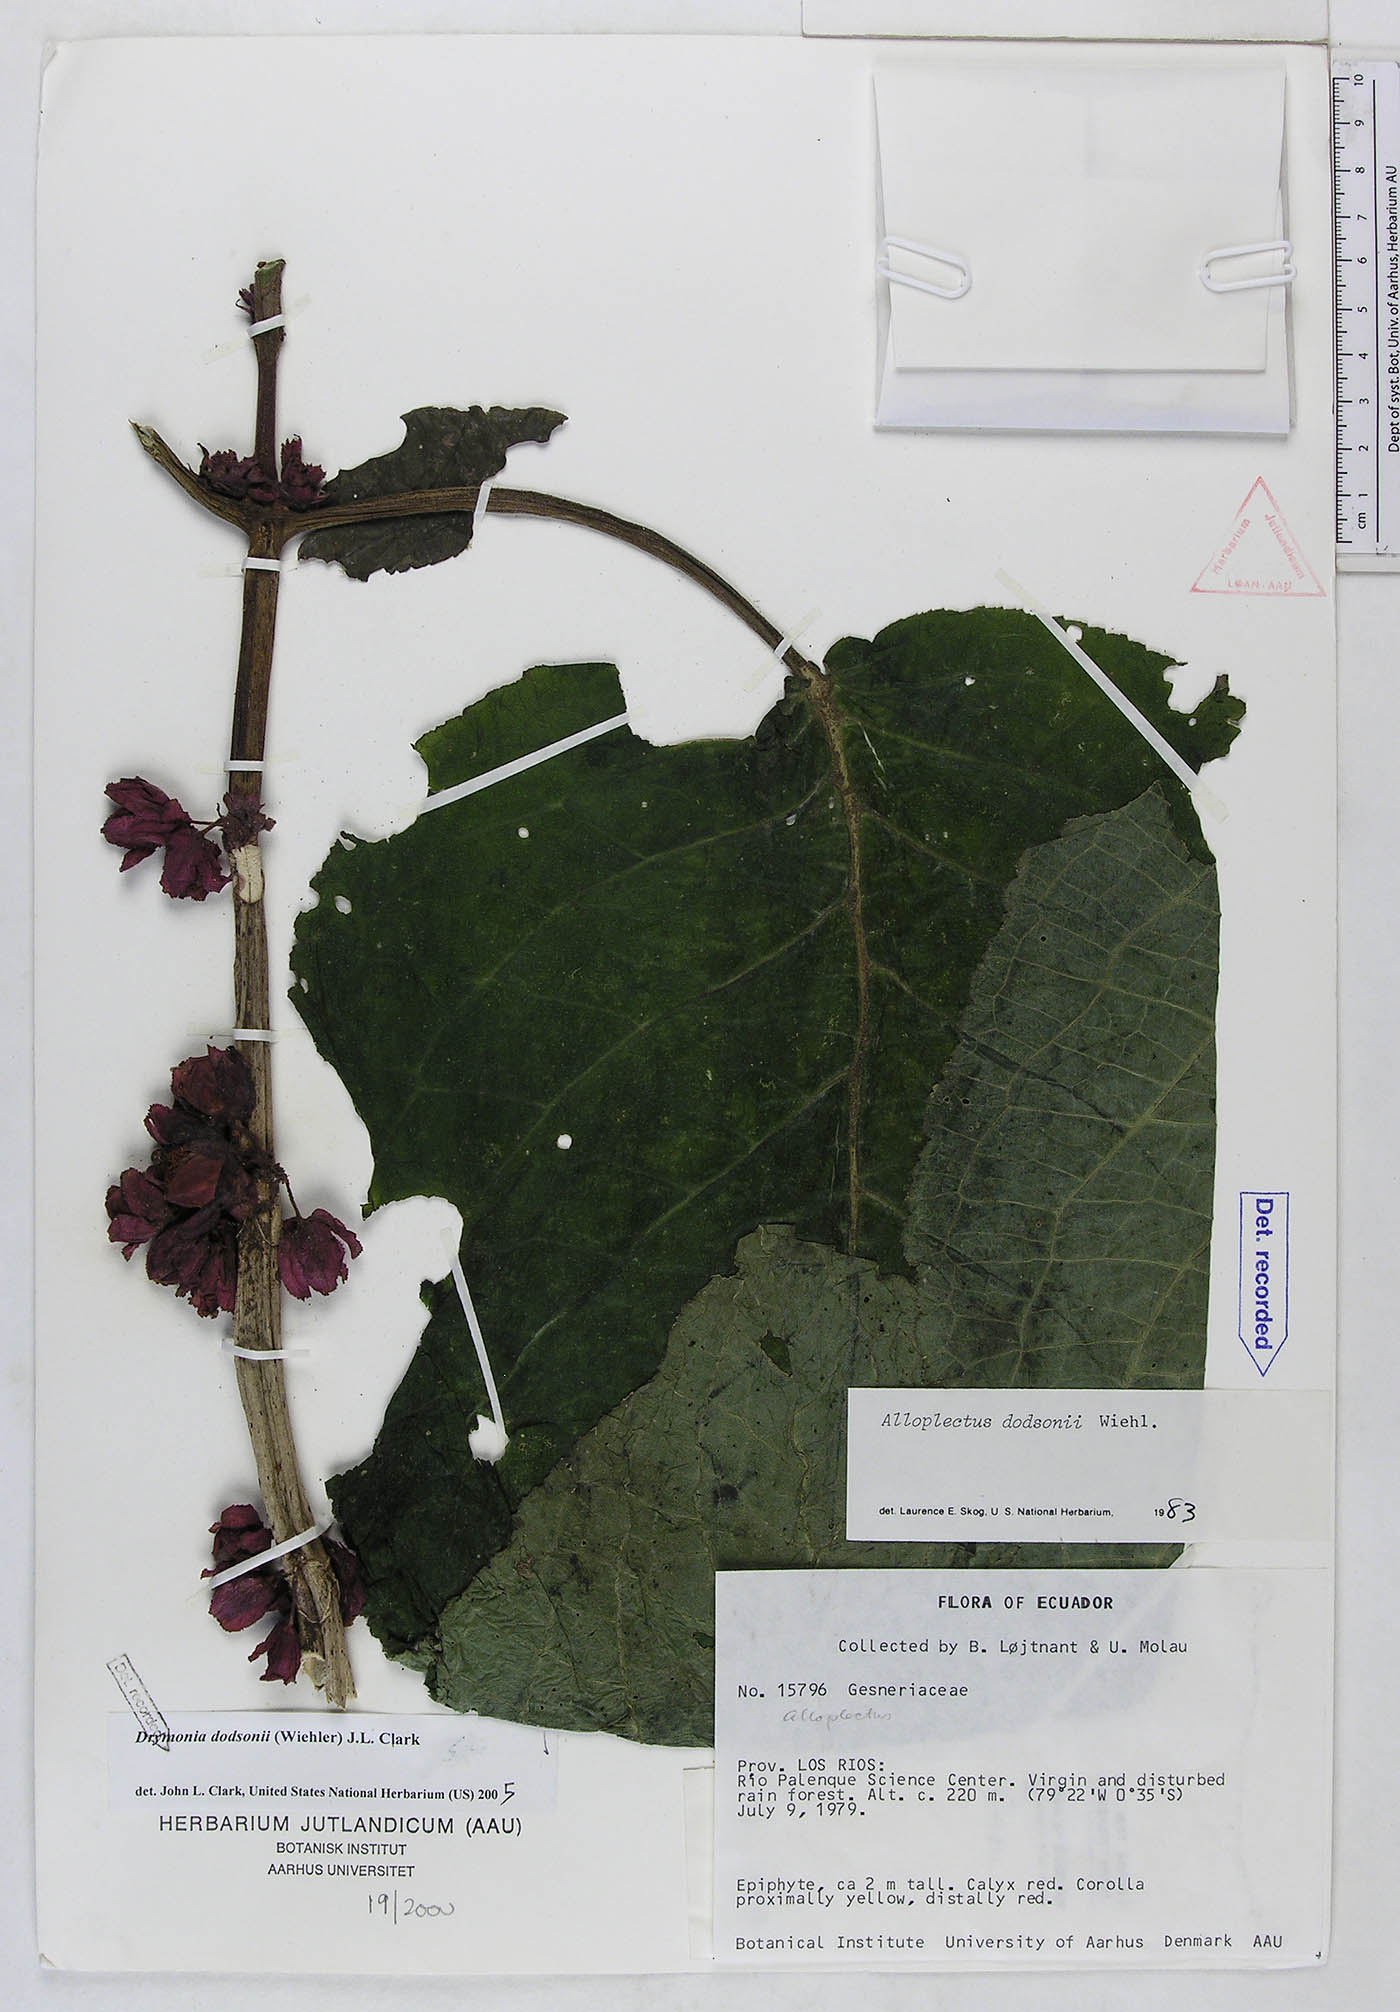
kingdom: Plantae
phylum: Tracheophyta
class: Magnoliopsida
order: Lamiales
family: Gesneriaceae
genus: Drymonia
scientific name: Drymonia dodsonii
